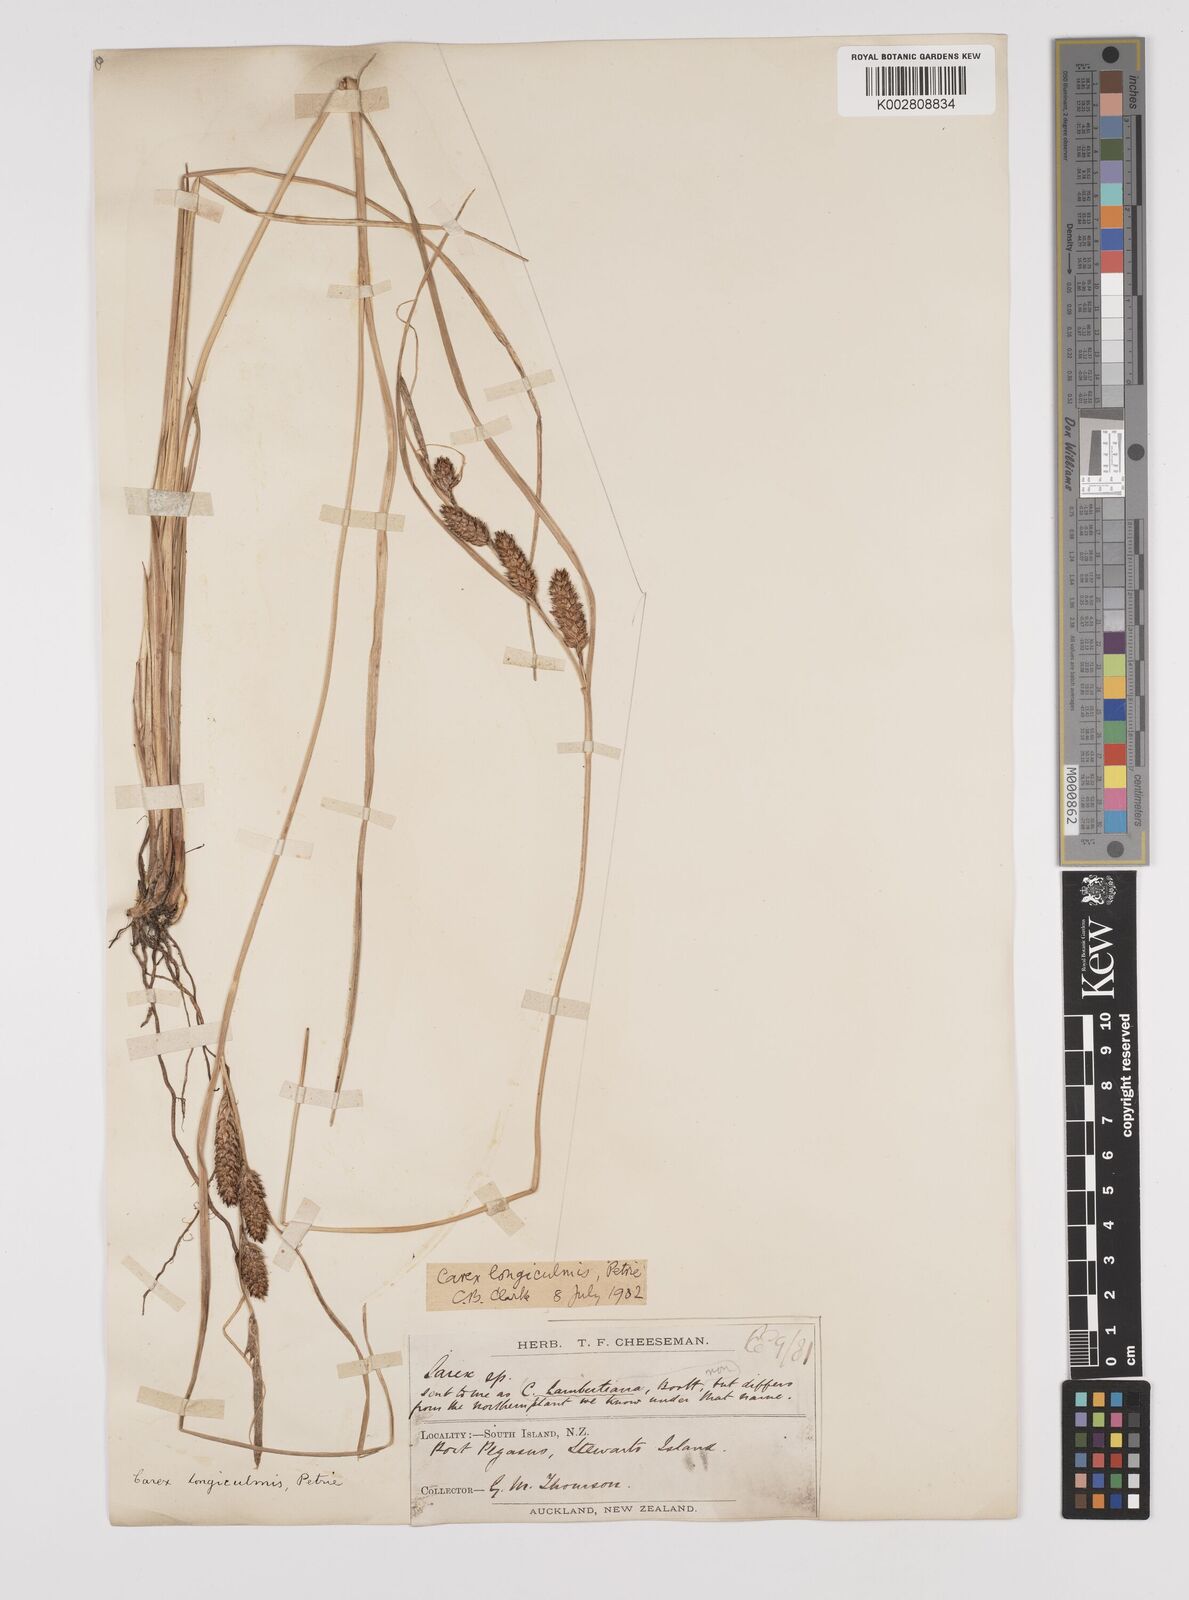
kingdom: Plantae
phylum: Tracheophyta
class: Liliopsida
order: Poales
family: Cyperaceae
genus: Carex
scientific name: Carex longiculmis
